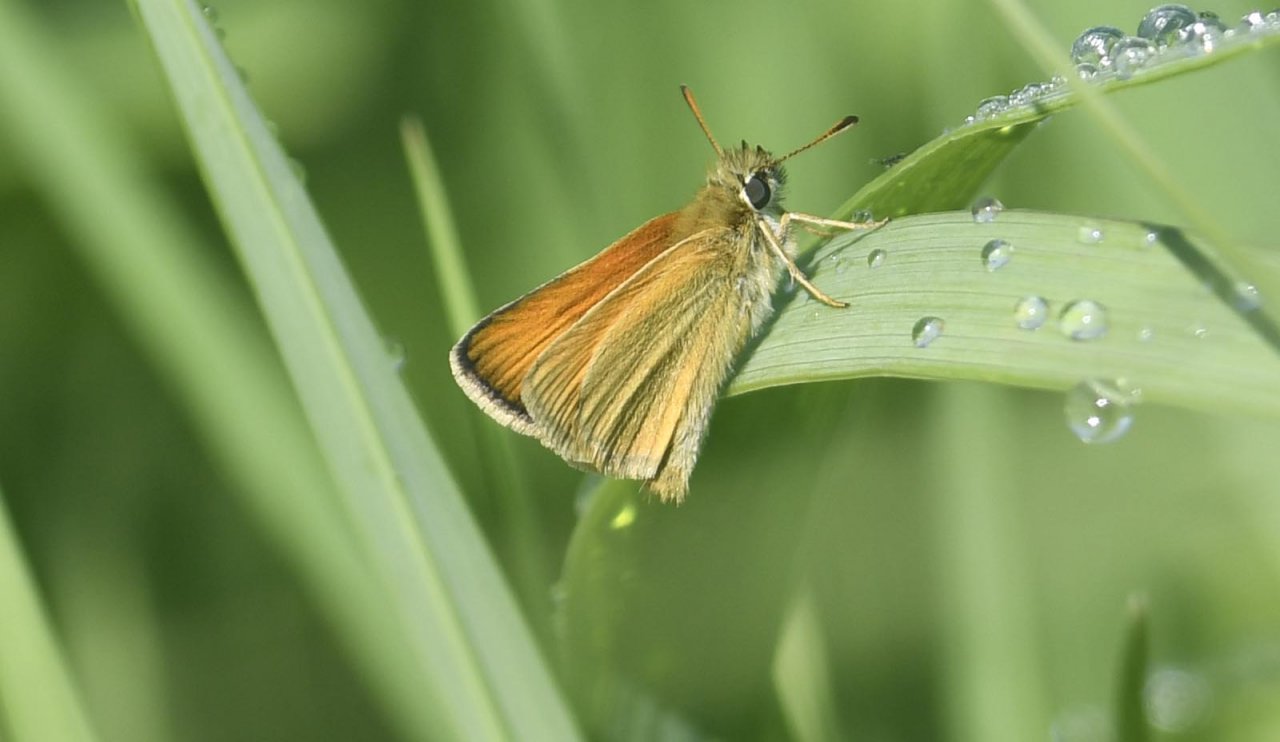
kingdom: Animalia
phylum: Arthropoda
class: Insecta
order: Lepidoptera
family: Hesperiidae
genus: Thymelicus
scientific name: Thymelicus lineola
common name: European Skipper
